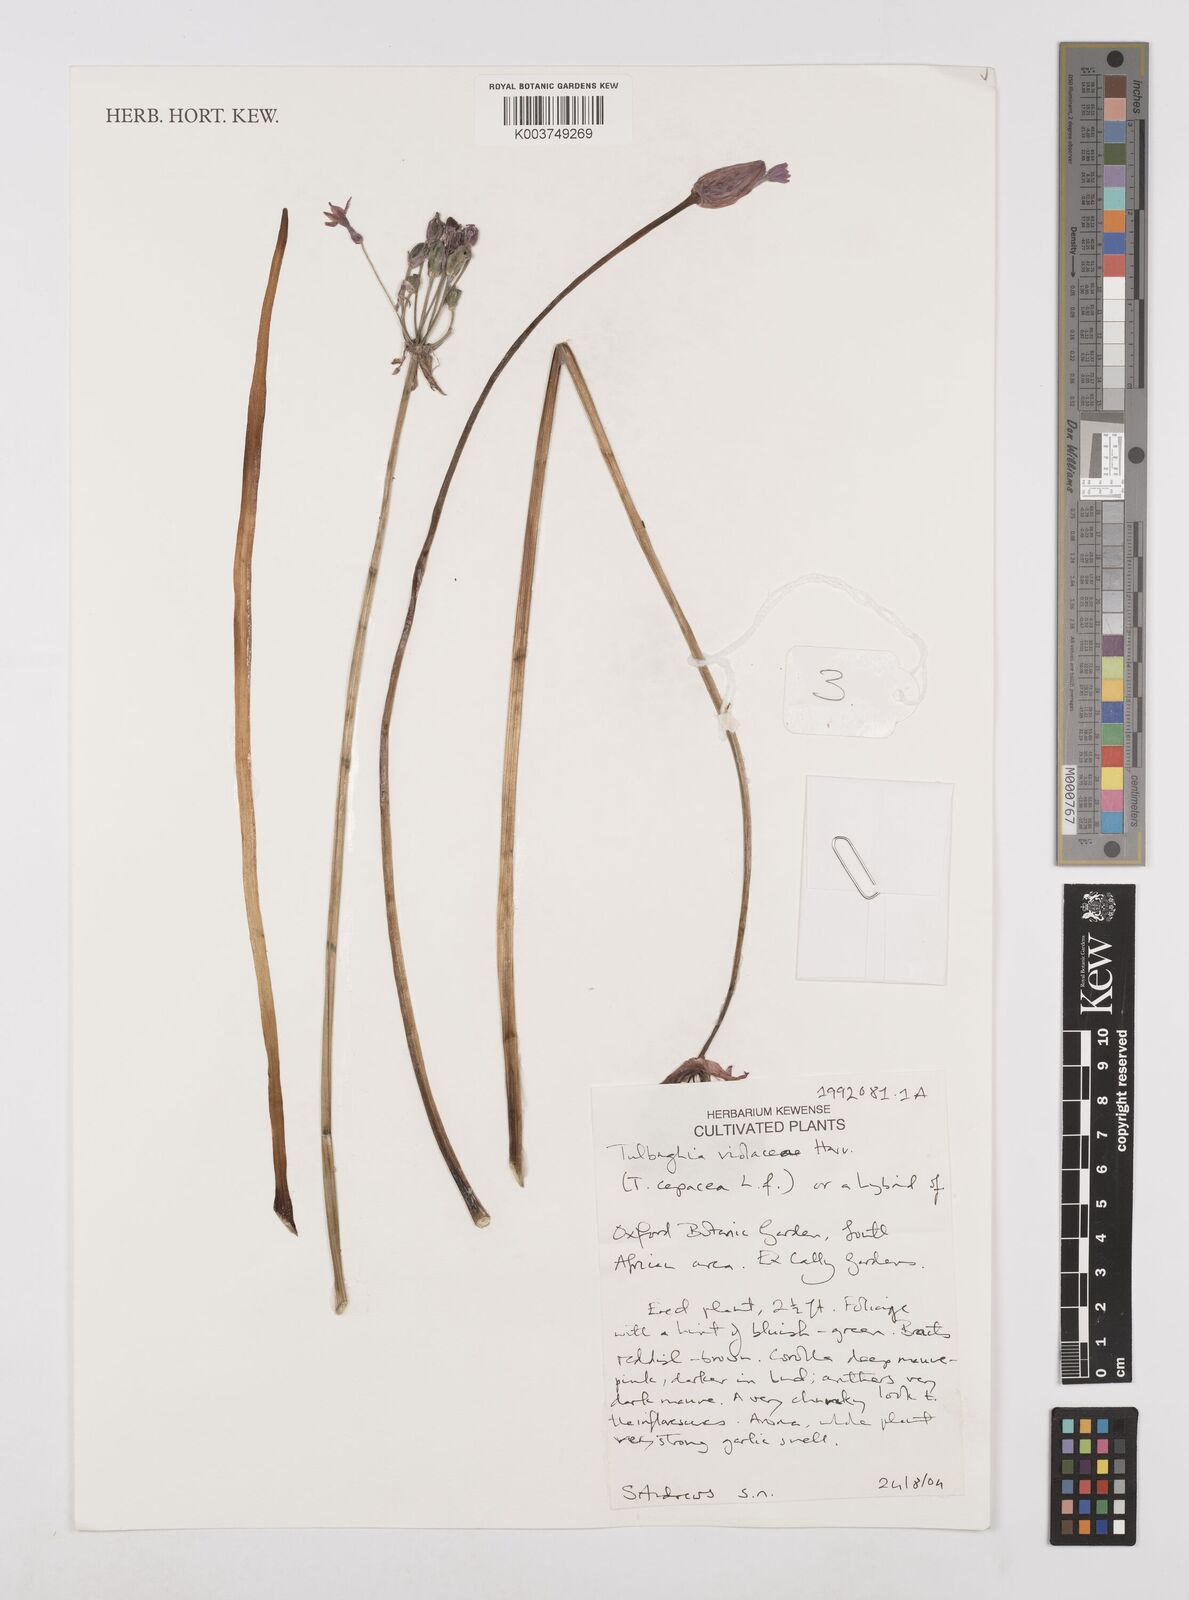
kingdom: Plantae
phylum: Tracheophyta
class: Liliopsida
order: Asparagales
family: Amaryllidaceae
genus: Tulbaghia
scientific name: Tulbaghia violacea
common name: Society garlic
